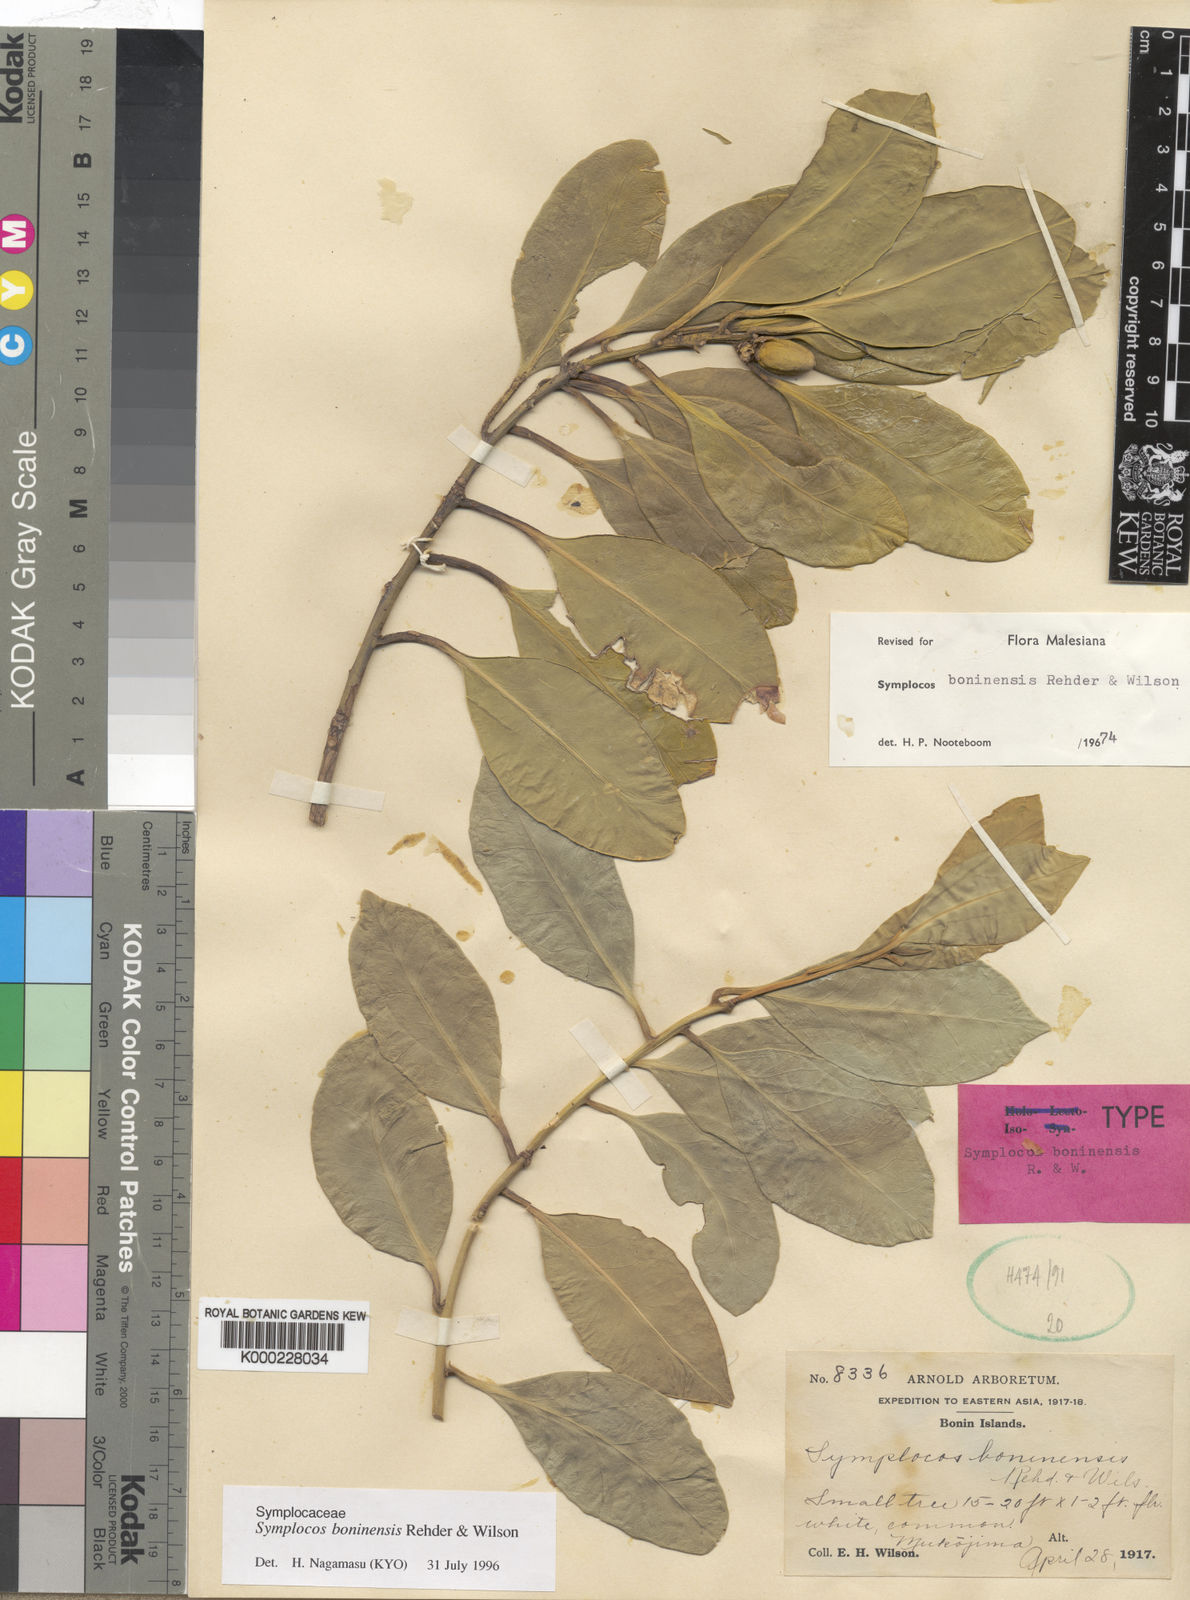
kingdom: Plantae
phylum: Tracheophyta
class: Magnoliopsida
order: Ericales
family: Symplocaceae
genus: Symplocos
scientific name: Symplocos boninensis
